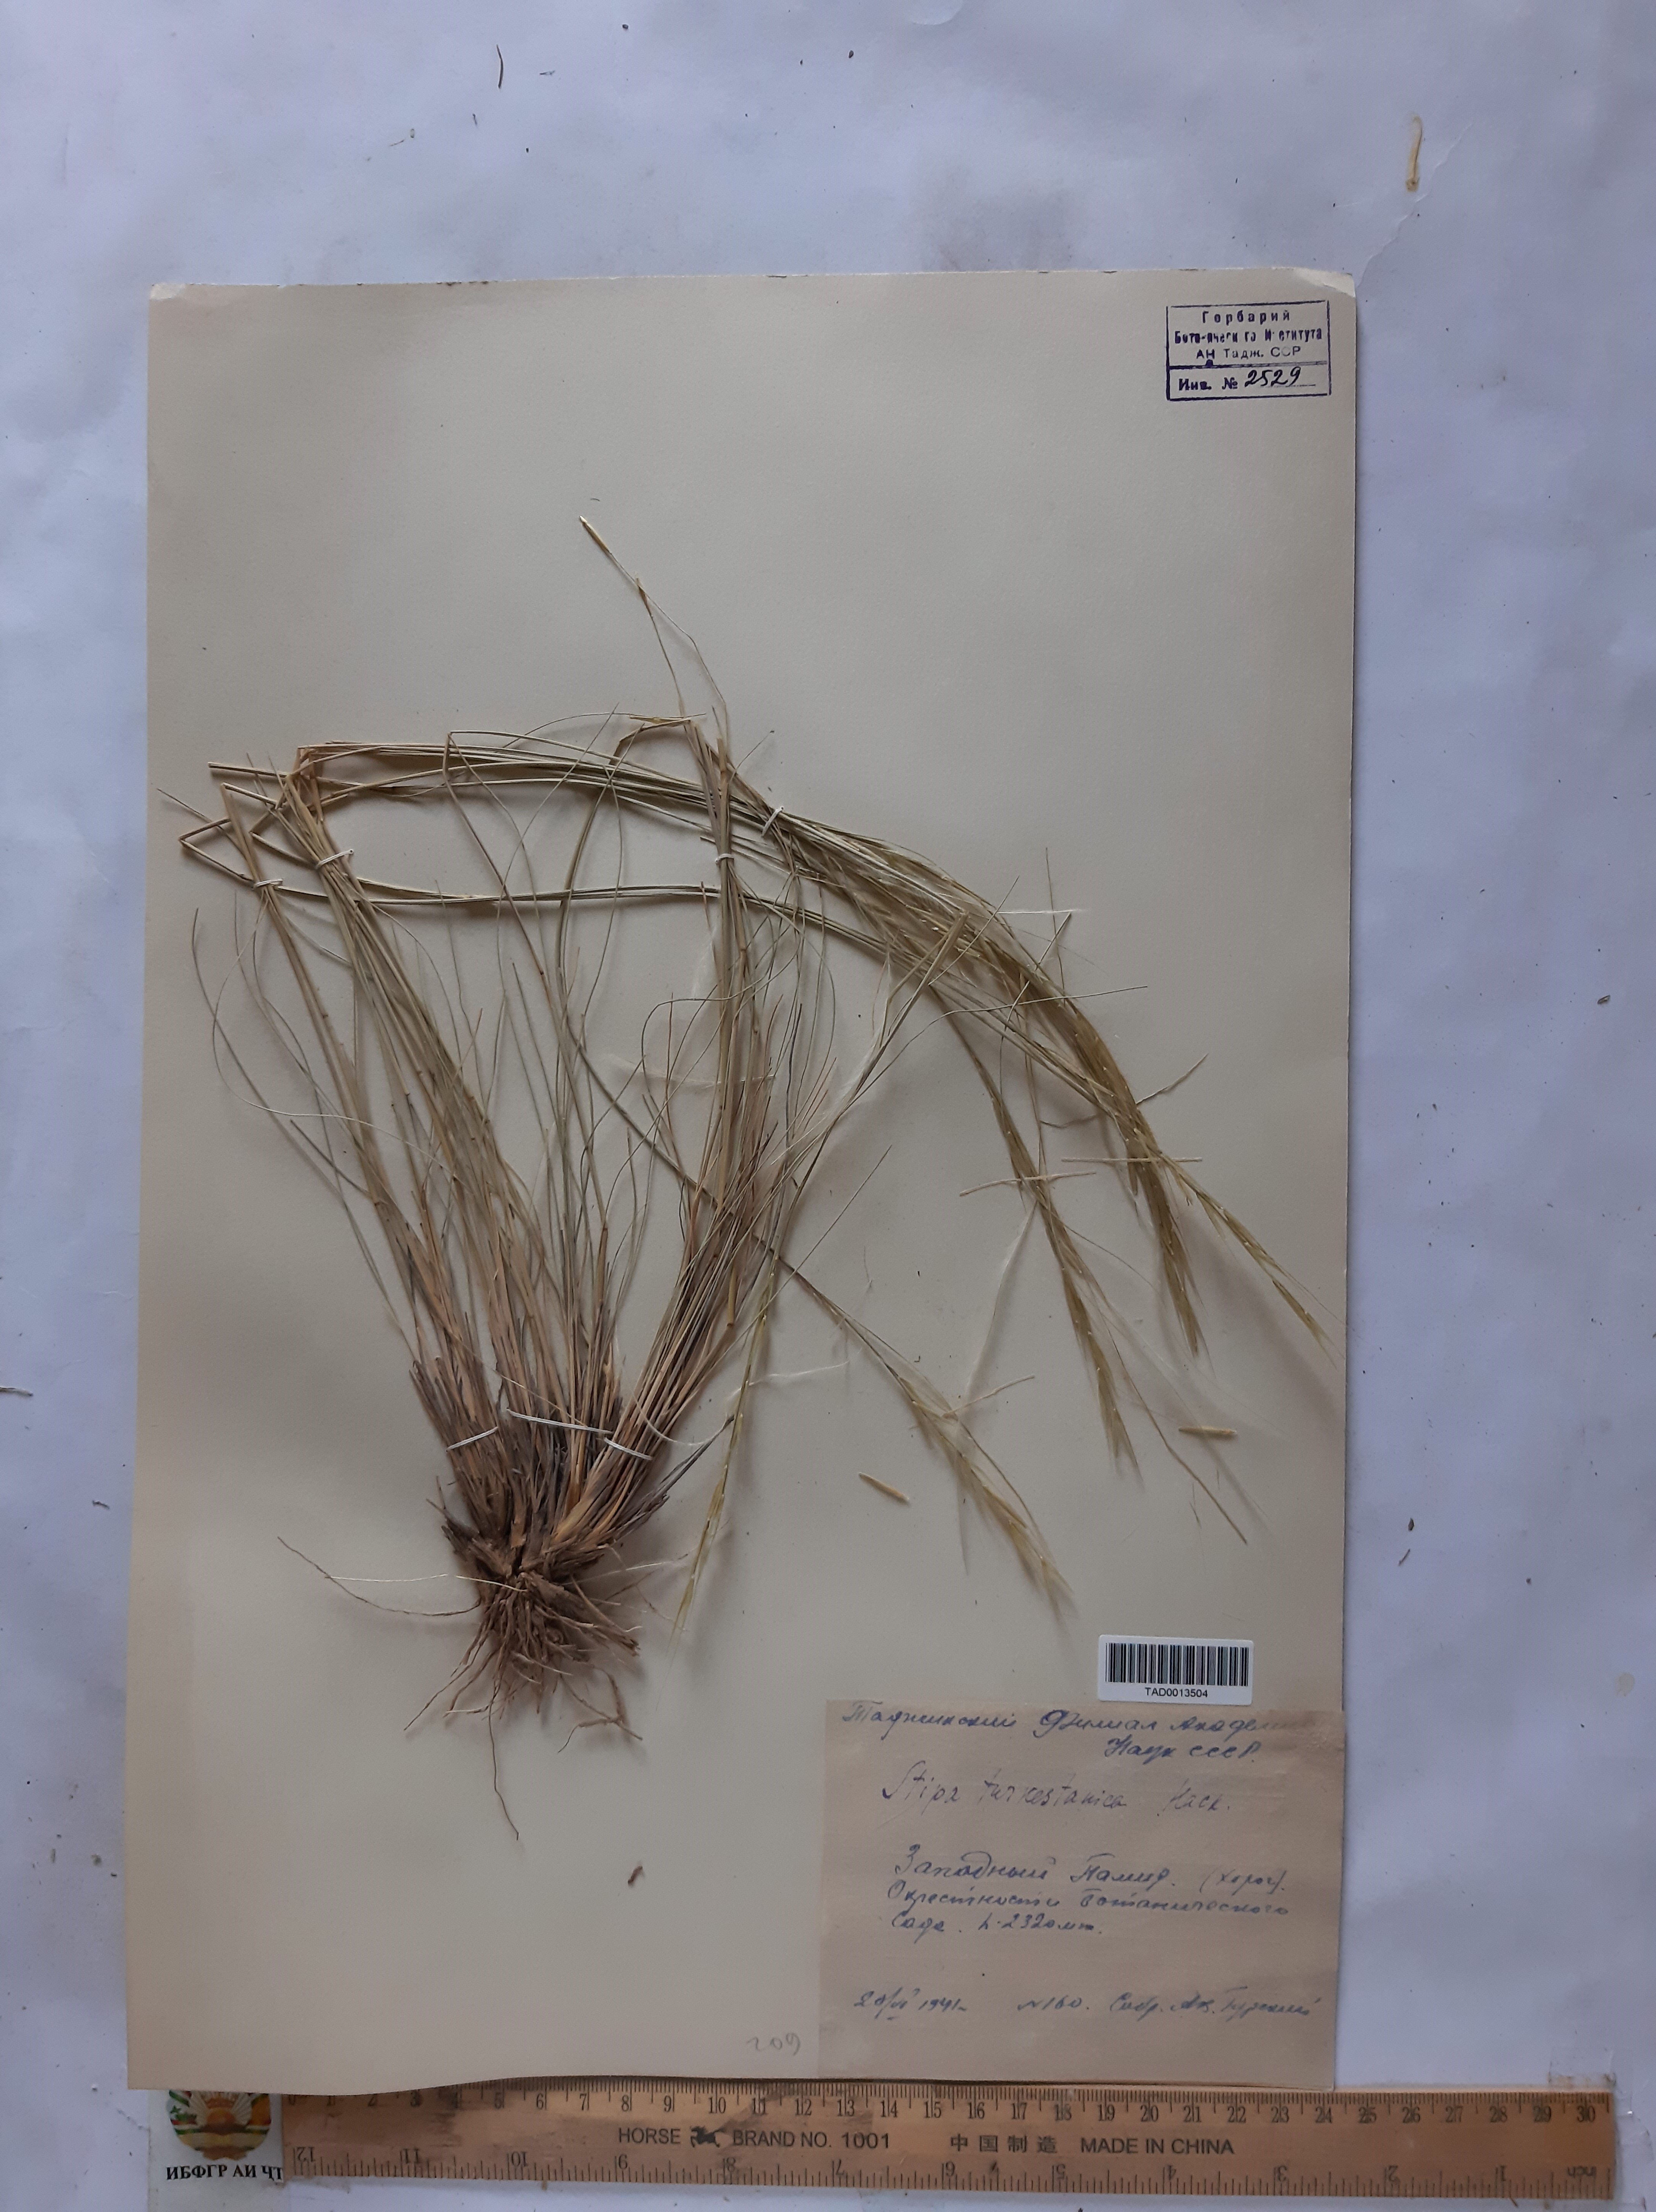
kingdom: Plantae
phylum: Tracheophyta
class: Liliopsida
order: Poales
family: Poaceae
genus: Stipa
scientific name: Stipa turkestanica
